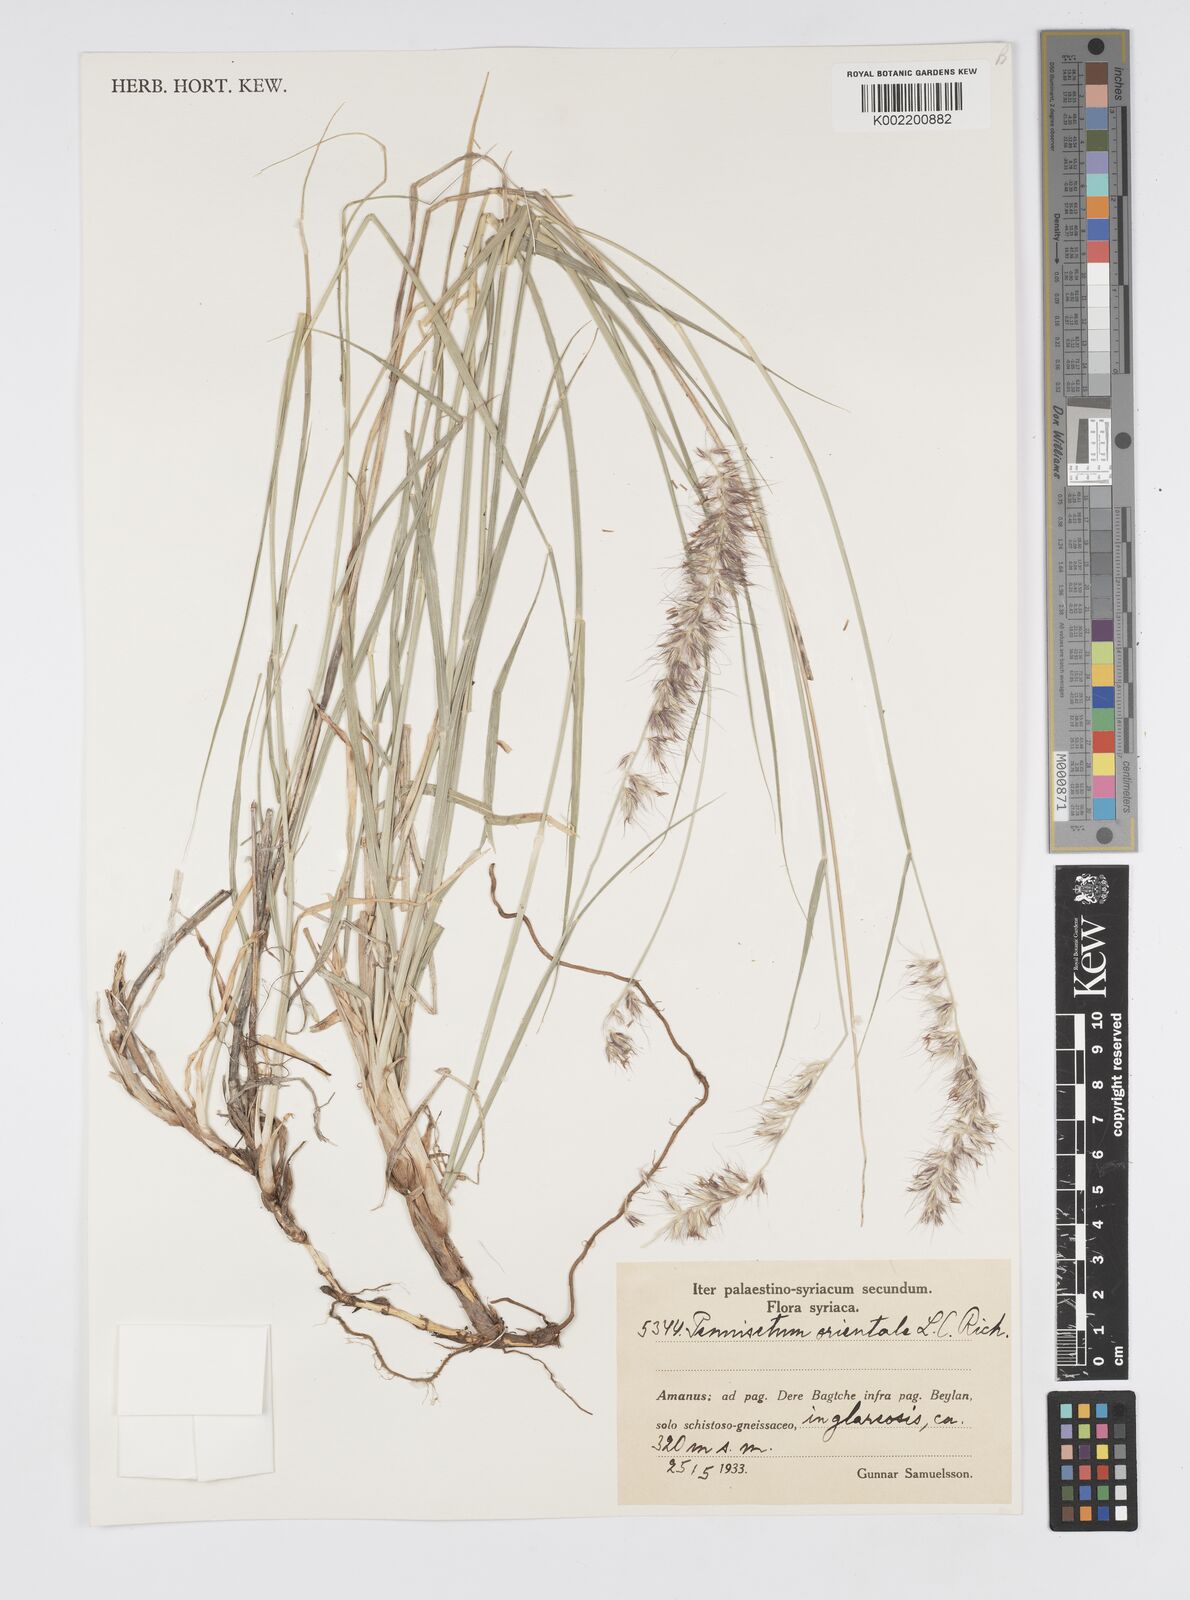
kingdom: Plantae
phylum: Tracheophyta
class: Liliopsida
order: Poales
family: Poaceae
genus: Cenchrus
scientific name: Cenchrus orientalis
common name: Oriental fountain grass
